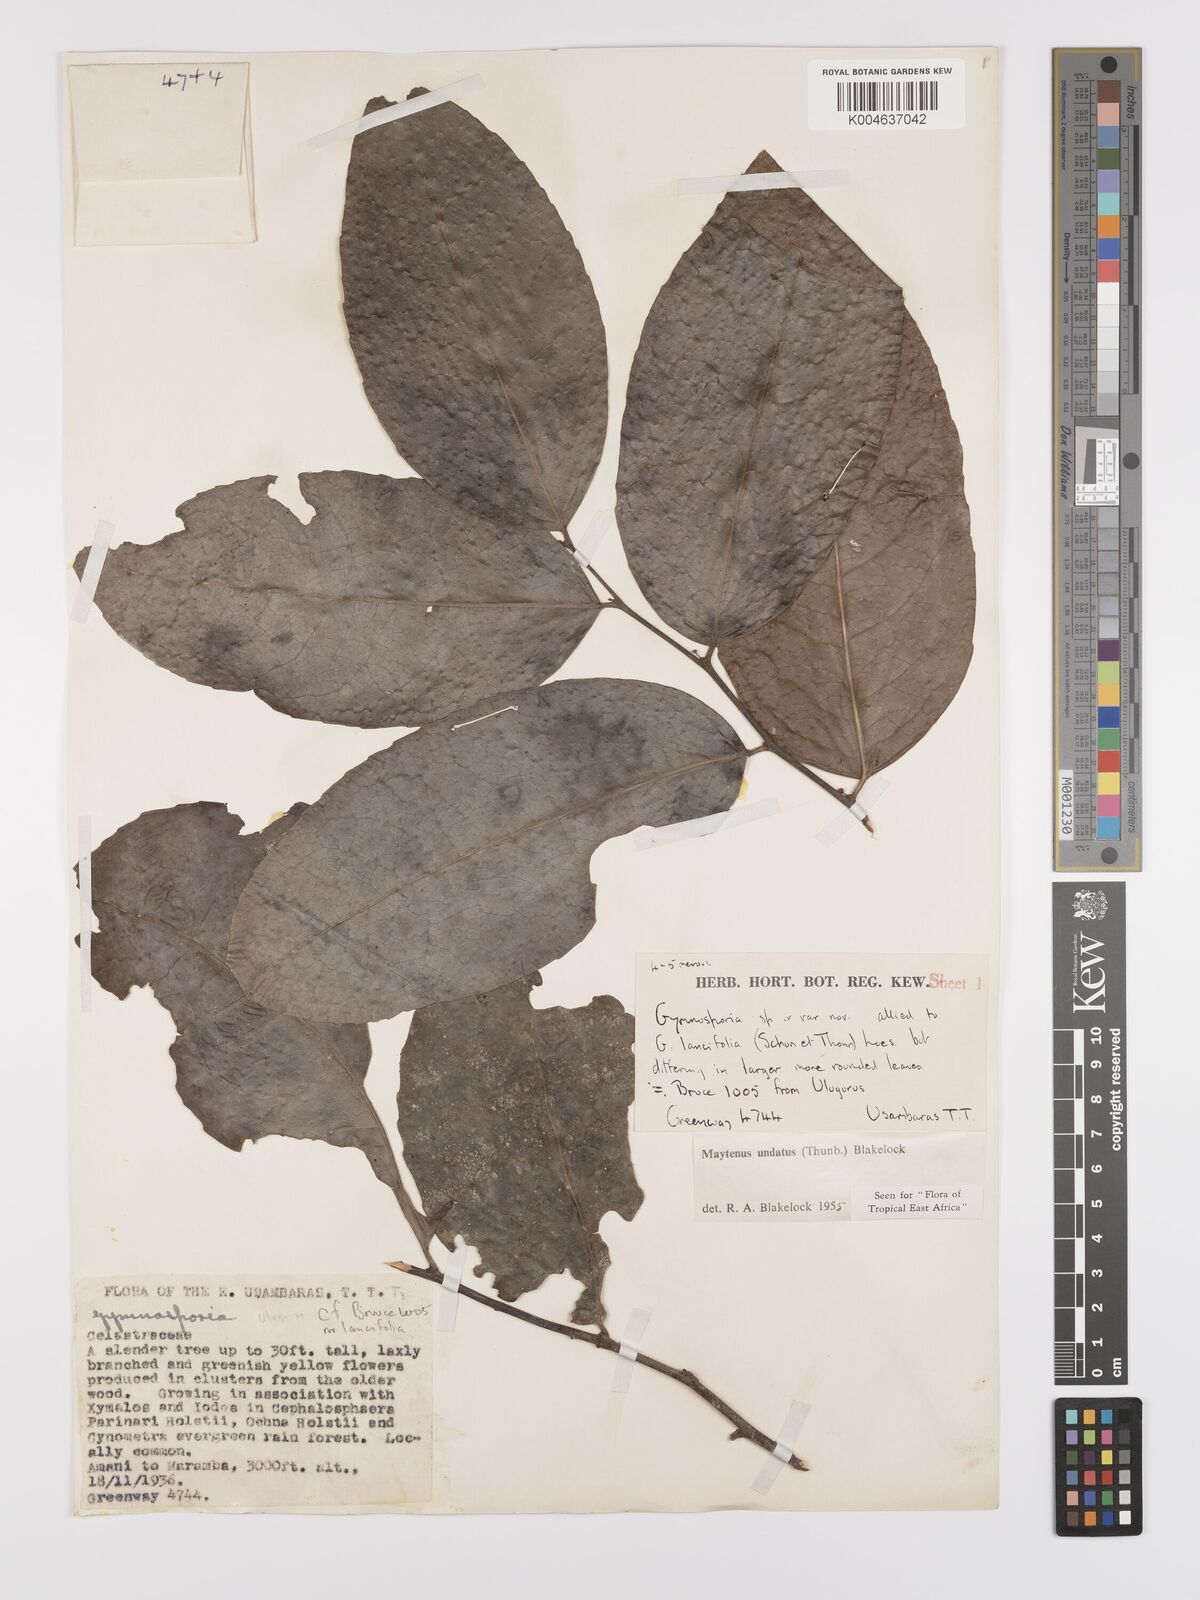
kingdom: Plantae
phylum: Tracheophyta
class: Magnoliopsida
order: Celastrales
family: Celastraceae
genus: Gymnosporia
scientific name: Gymnosporia undata
